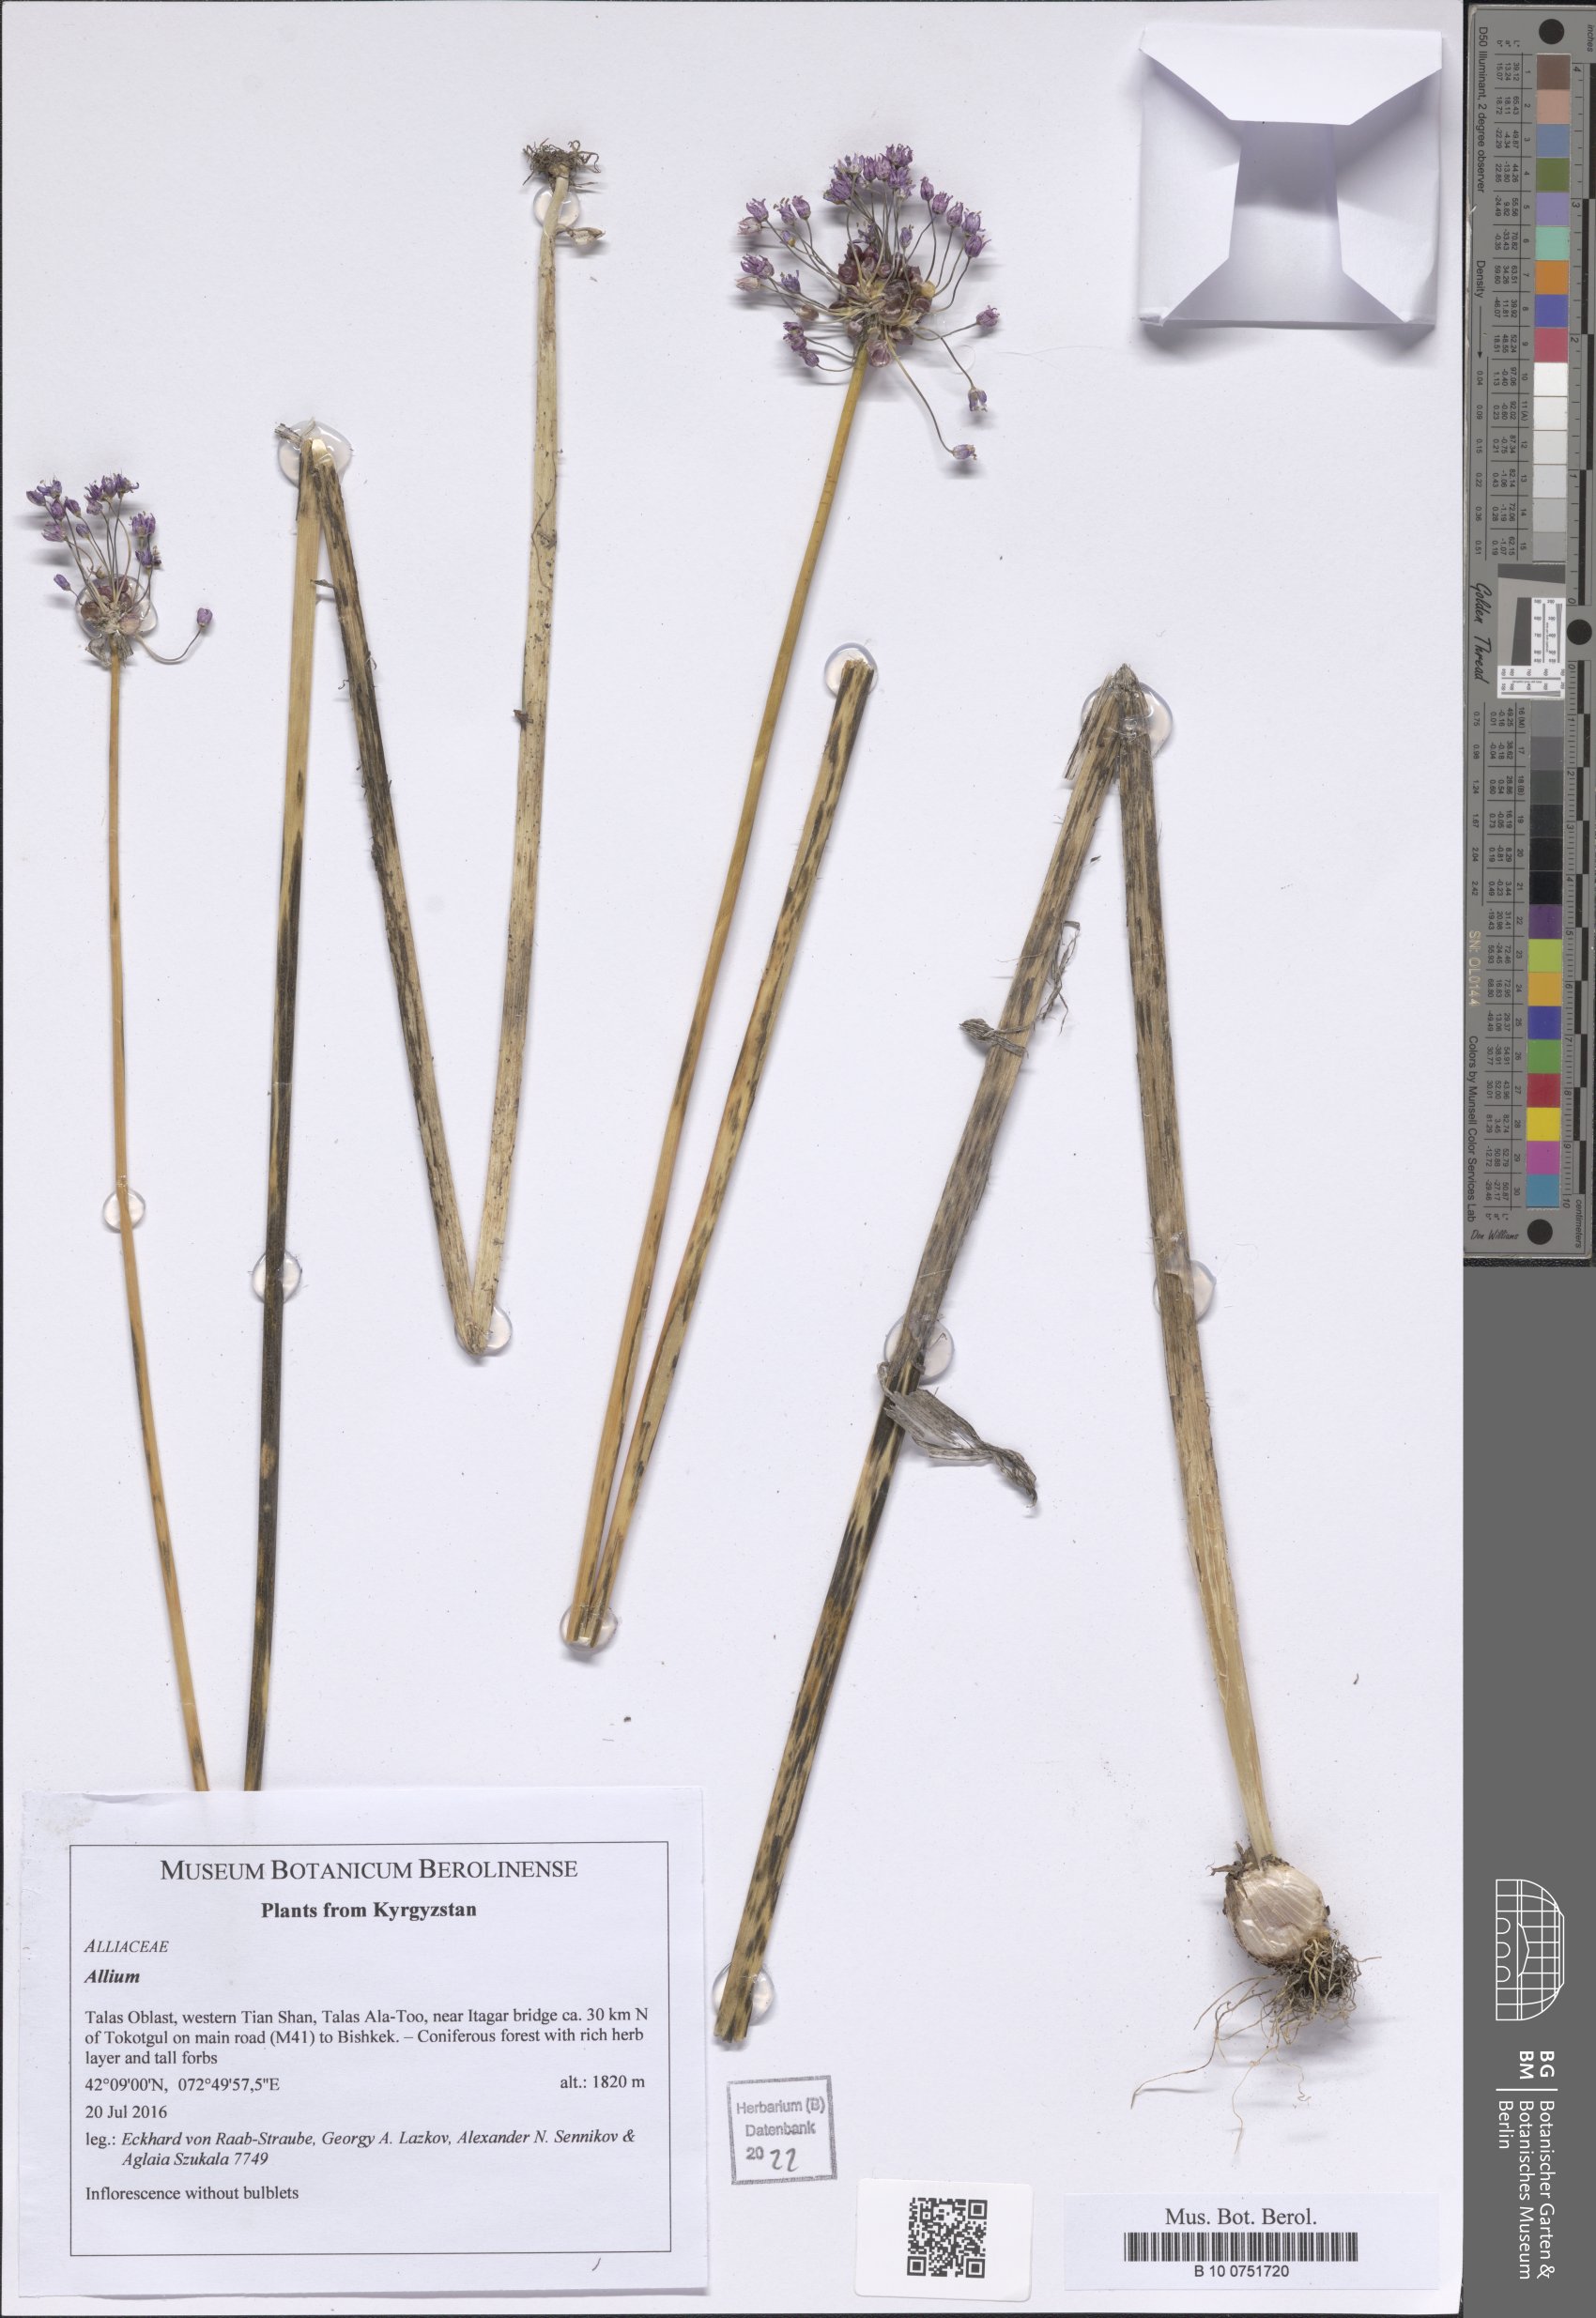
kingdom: Plantae
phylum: Tracheophyta
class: Liliopsida
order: Asparagales
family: Amaryllidaceae
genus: Allium
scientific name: Allium
